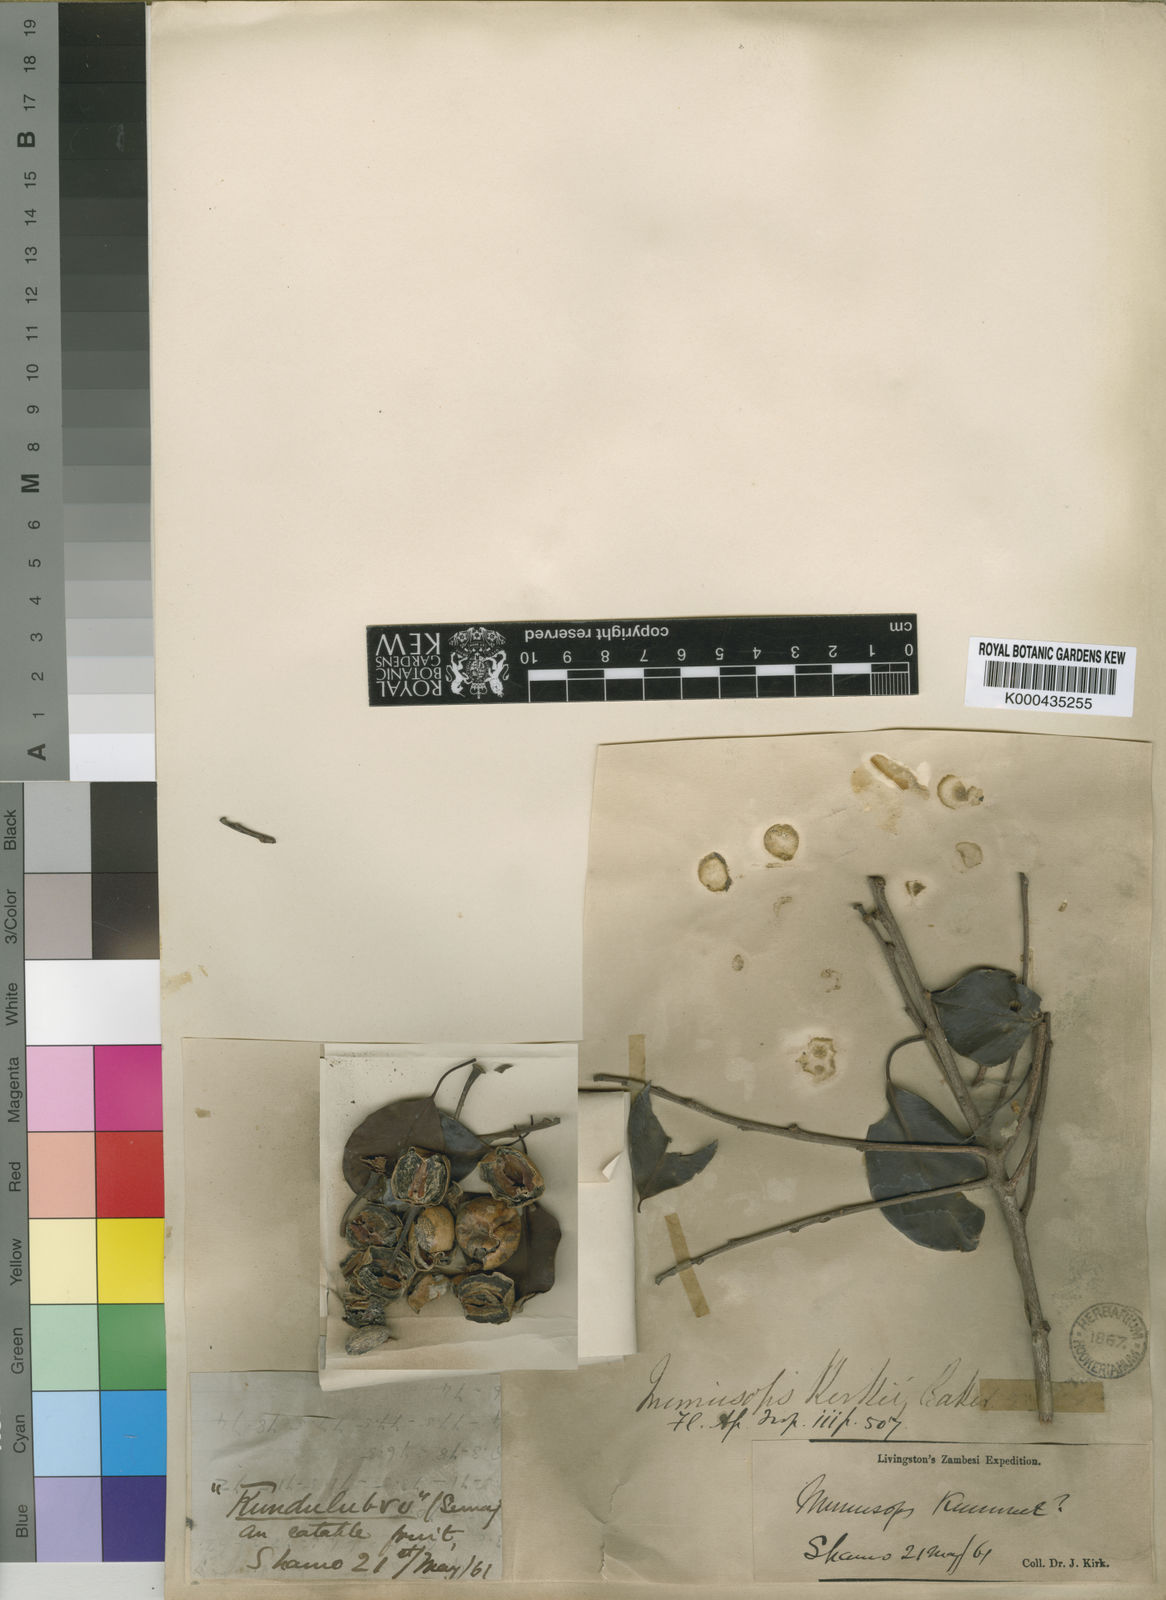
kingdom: Plantae
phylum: Tracheophyta
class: Magnoliopsida
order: Ericales
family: Sapotaceae
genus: Mimusops
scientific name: Mimusops
